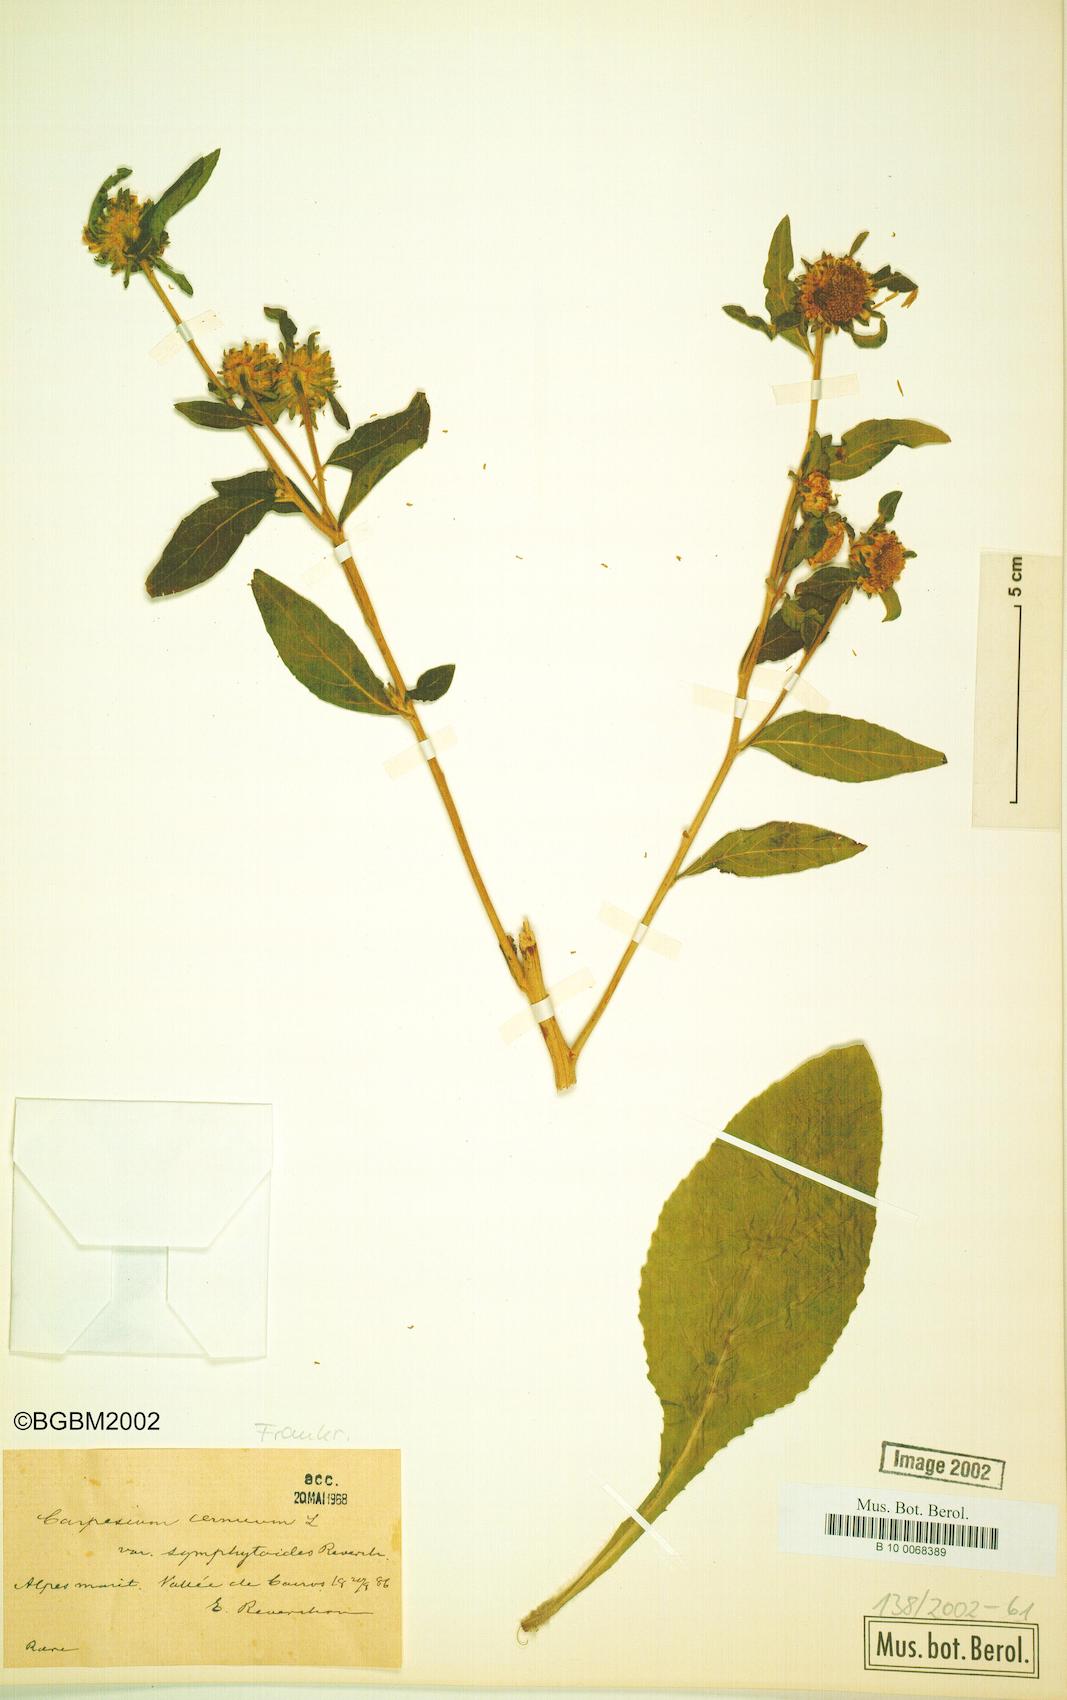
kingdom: Plantae
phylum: Tracheophyta
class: Magnoliopsida
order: Asterales
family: Asteraceae
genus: Carpesium
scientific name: Carpesium cernuum
